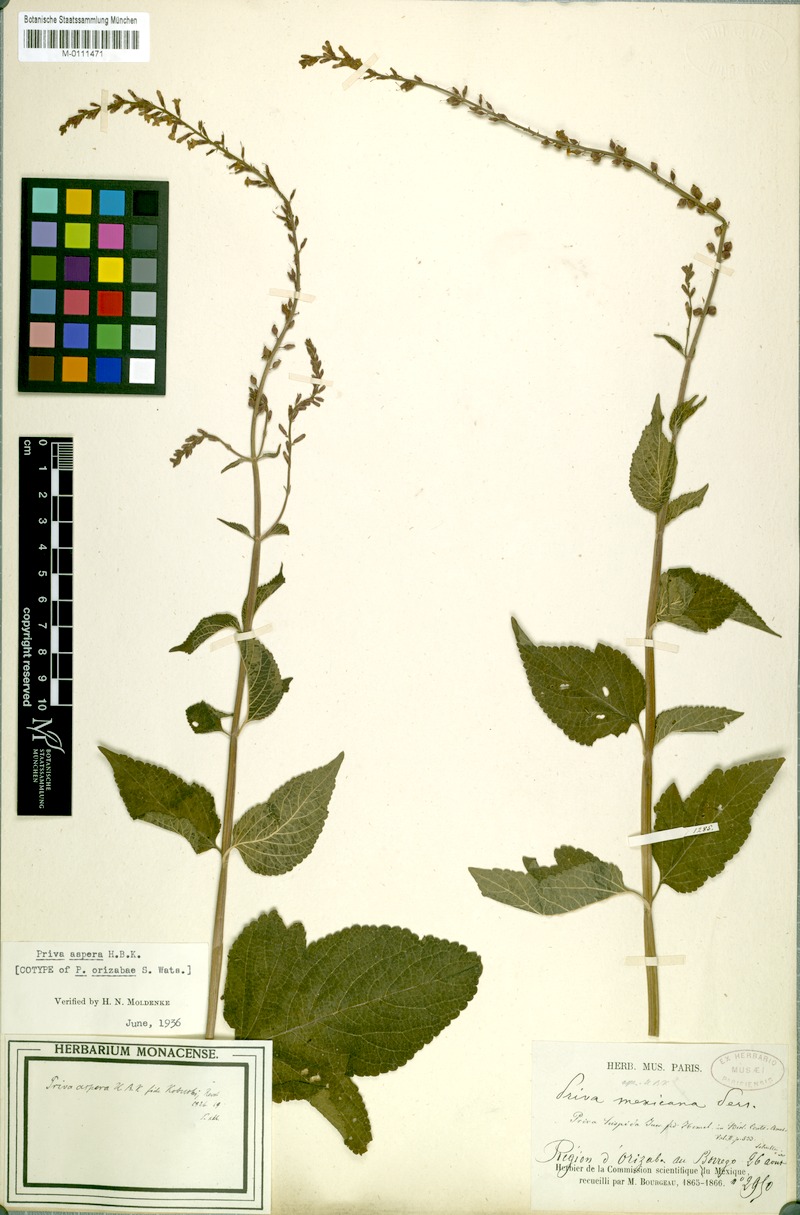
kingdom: Plantae
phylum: Tracheophyta
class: Magnoliopsida
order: Lamiales
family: Verbenaceae
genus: Priva
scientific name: Priva aspera
